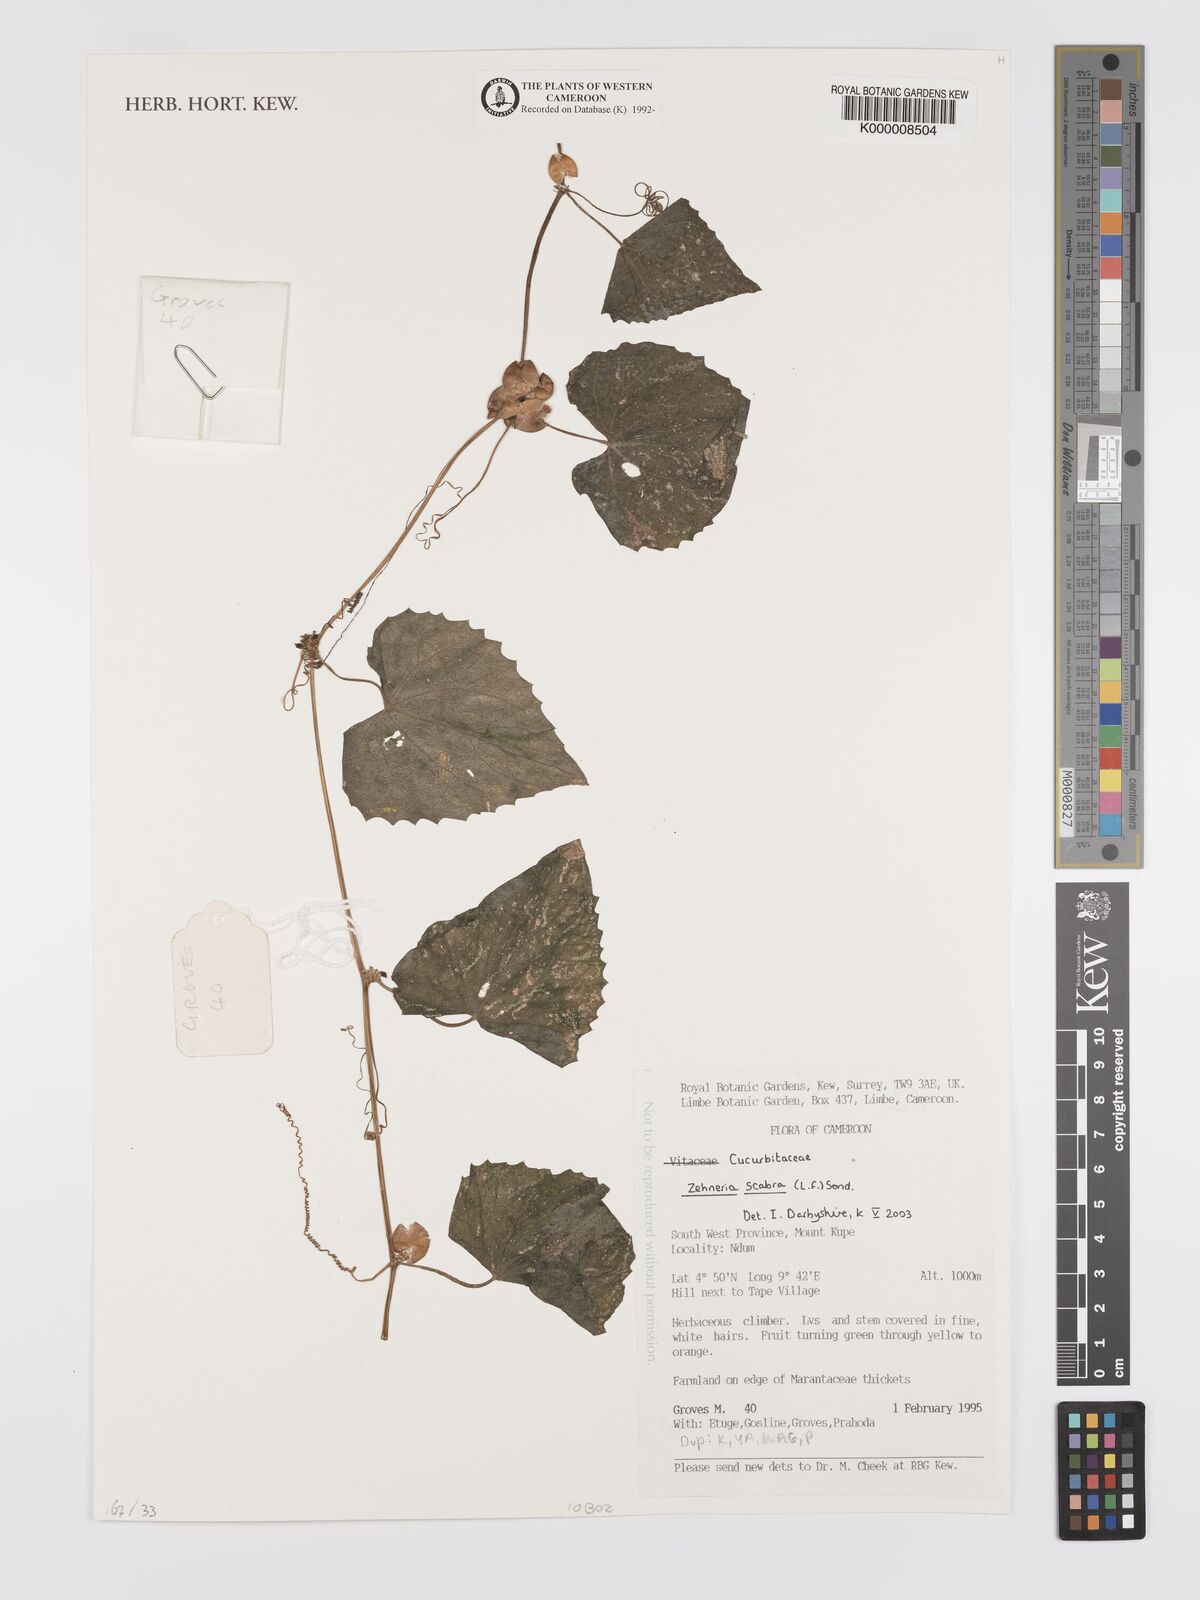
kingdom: Plantae
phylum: Tracheophyta
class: Magnoliopsida
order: Cucurbitales
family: Cucurbitaceae
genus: Zehneria
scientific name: Zehneria scabra
